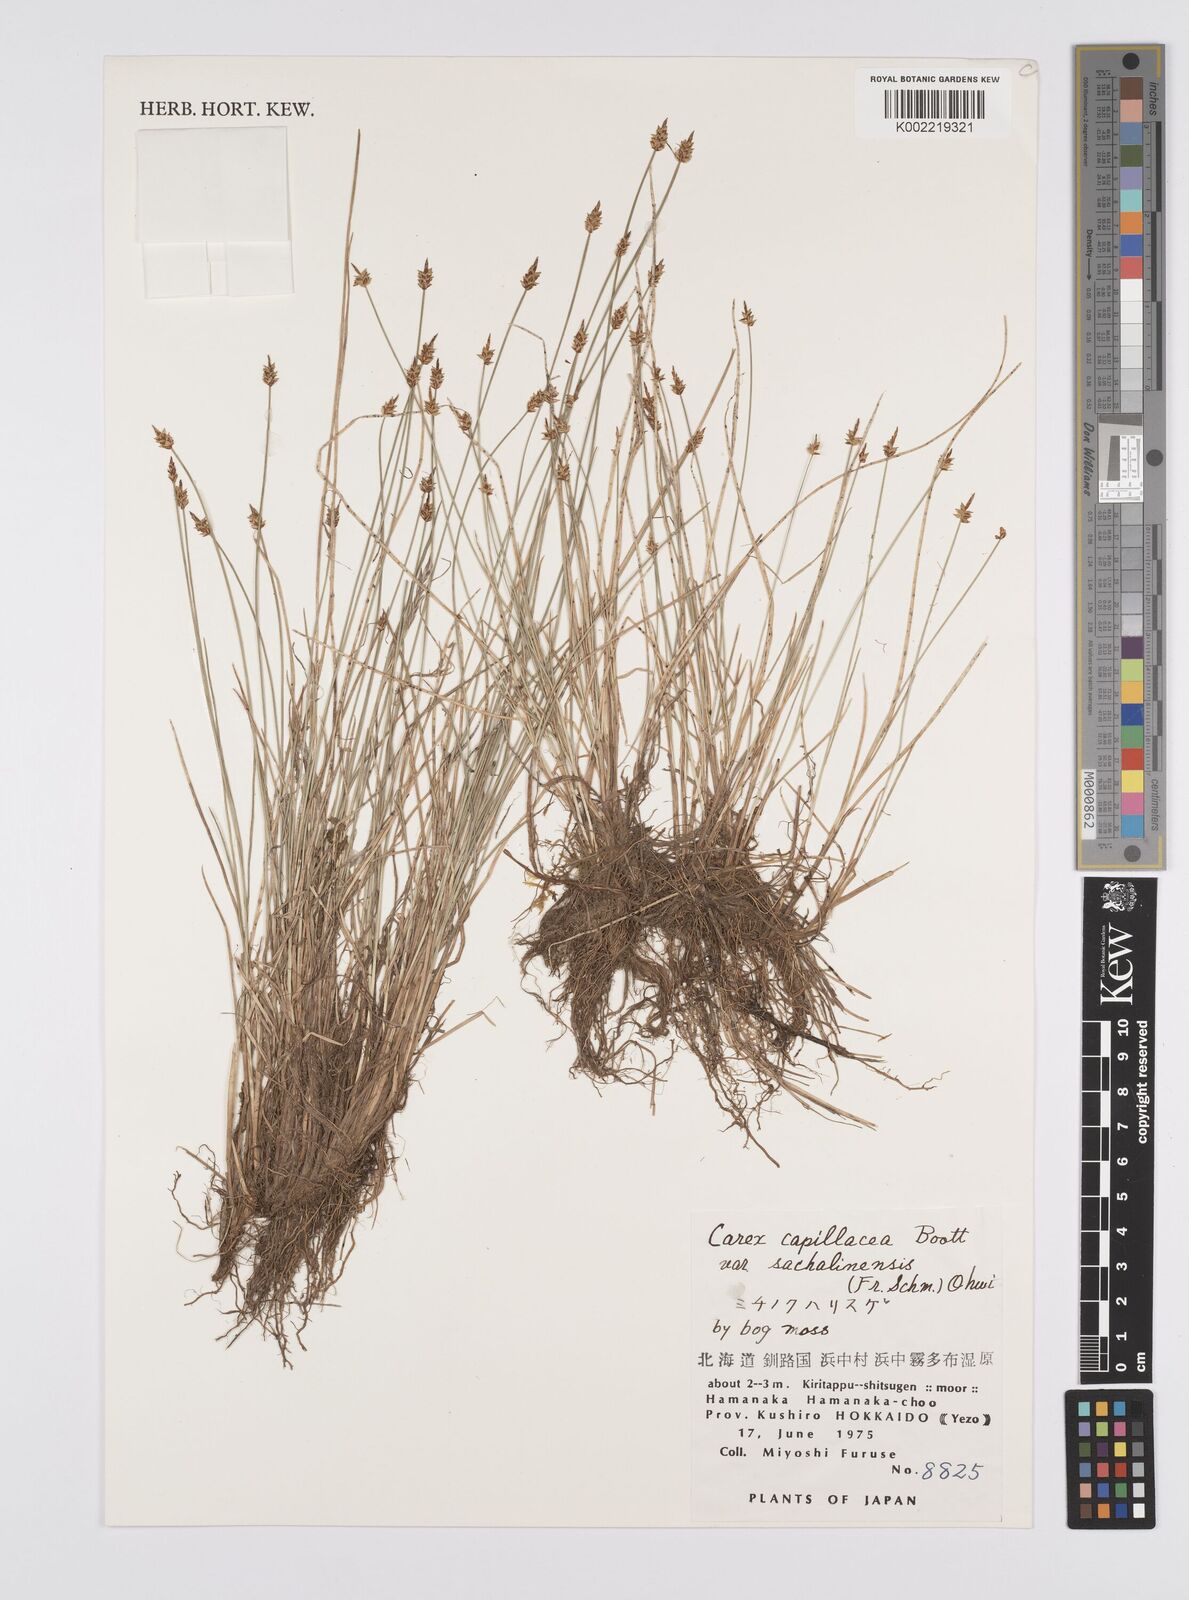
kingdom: Plantae
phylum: Tracheophyta
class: Liliopsida
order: Poales
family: Cyperaceae
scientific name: Cyperaceae
